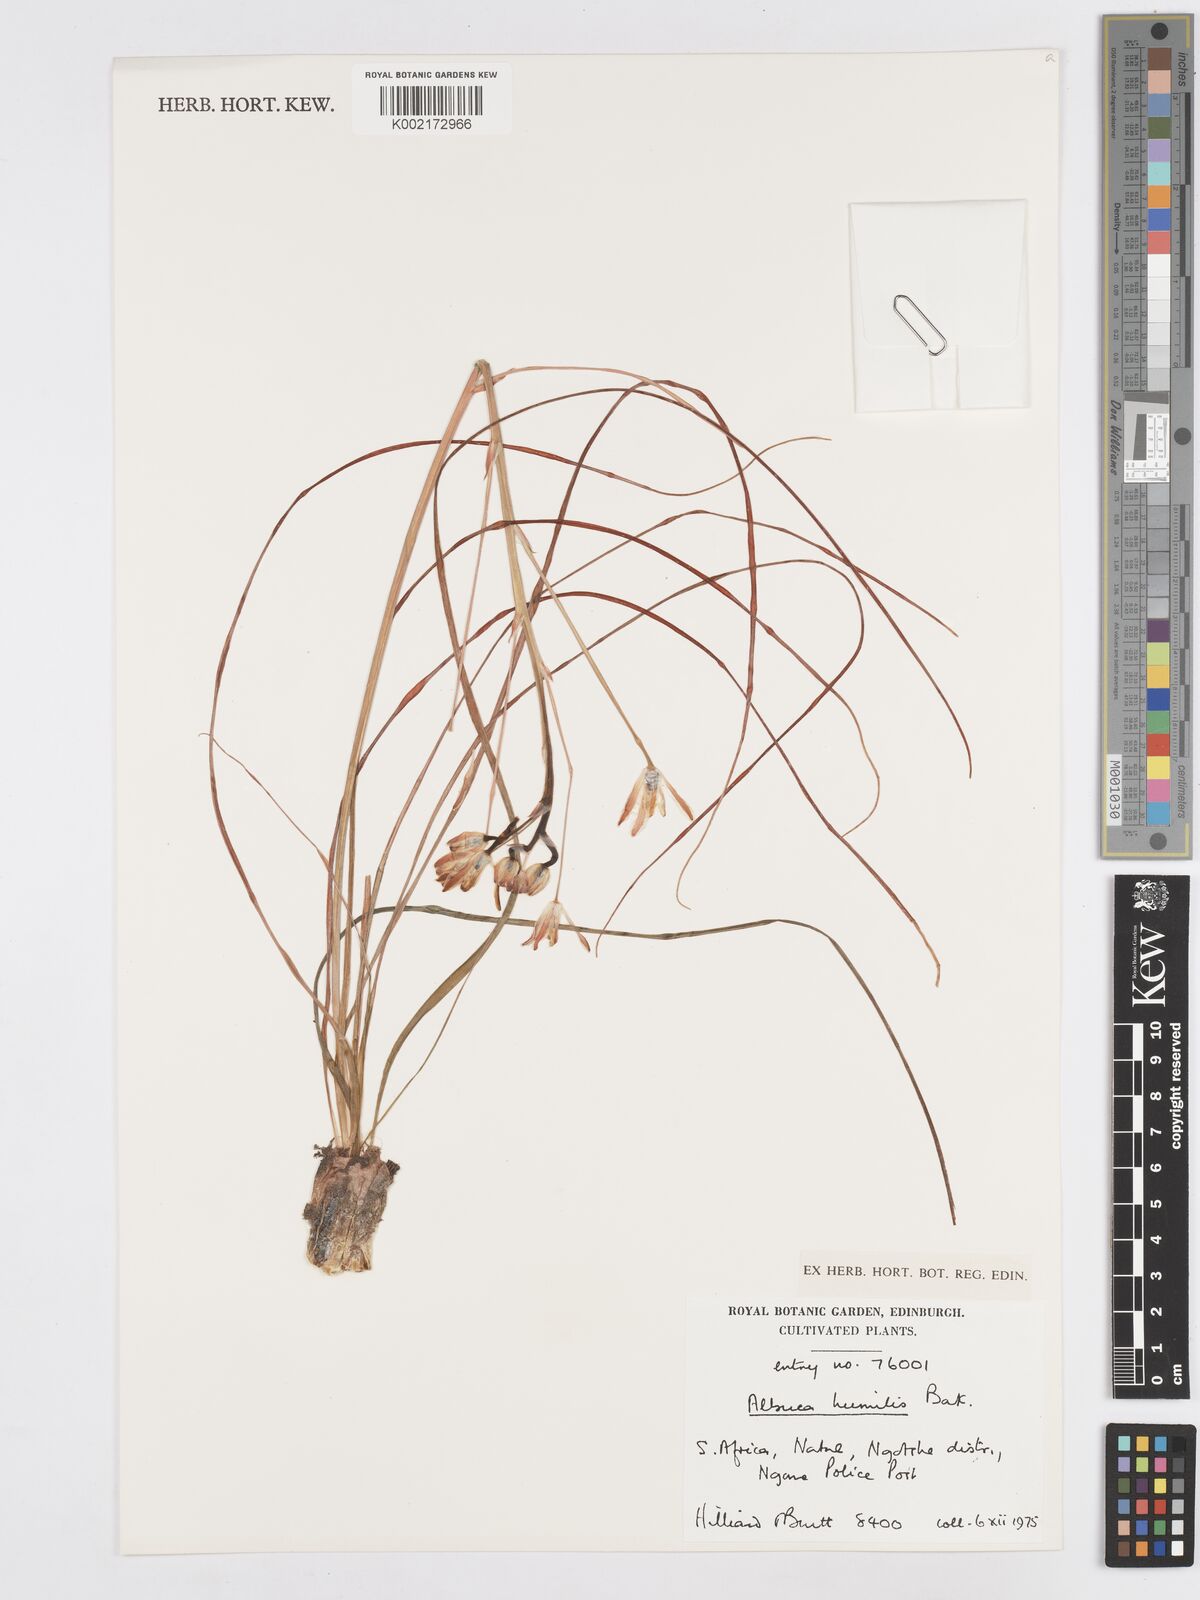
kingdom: Plantae
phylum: Tracheophyta
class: Liliopsida
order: Asparagales
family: Asparagaceae
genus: Albuca
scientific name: Albuca humilis
